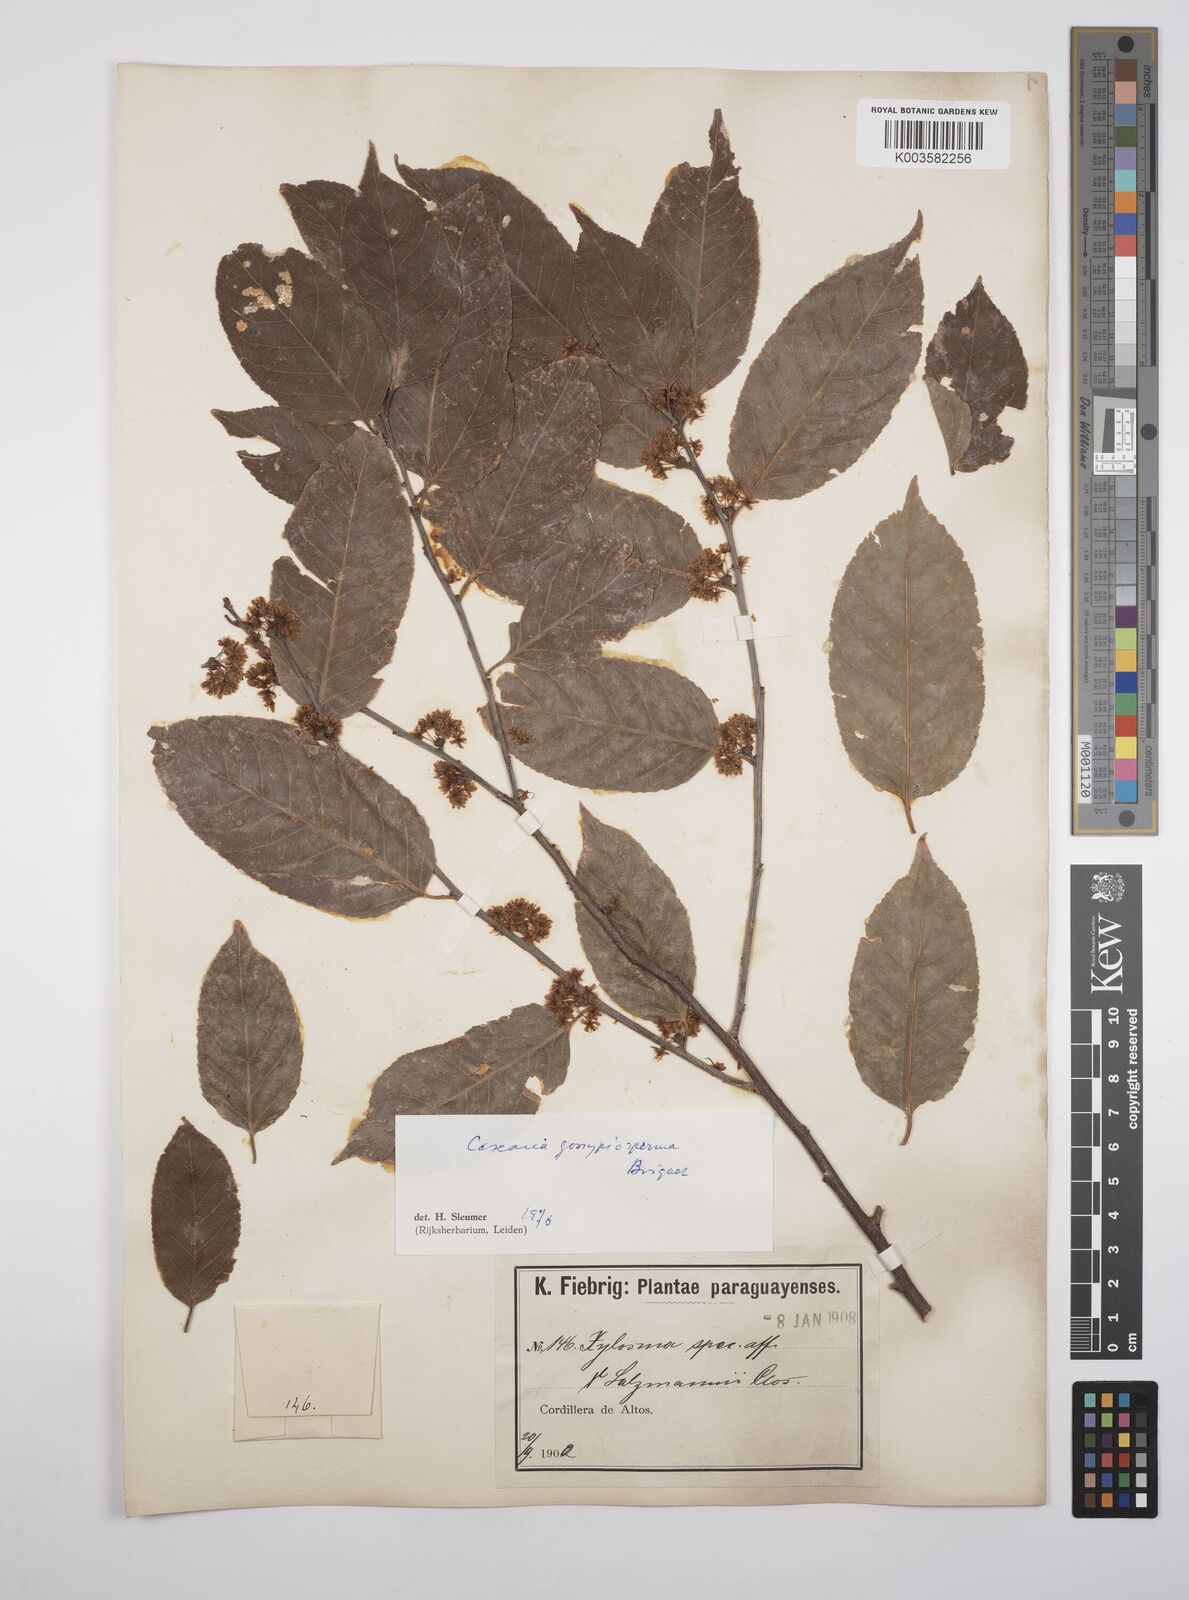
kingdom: Plantae
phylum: Tracheophyta
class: Magnoliopsida
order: Malpighiales
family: Salicaceae
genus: Casearia
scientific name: Casearia gossypiosperma
